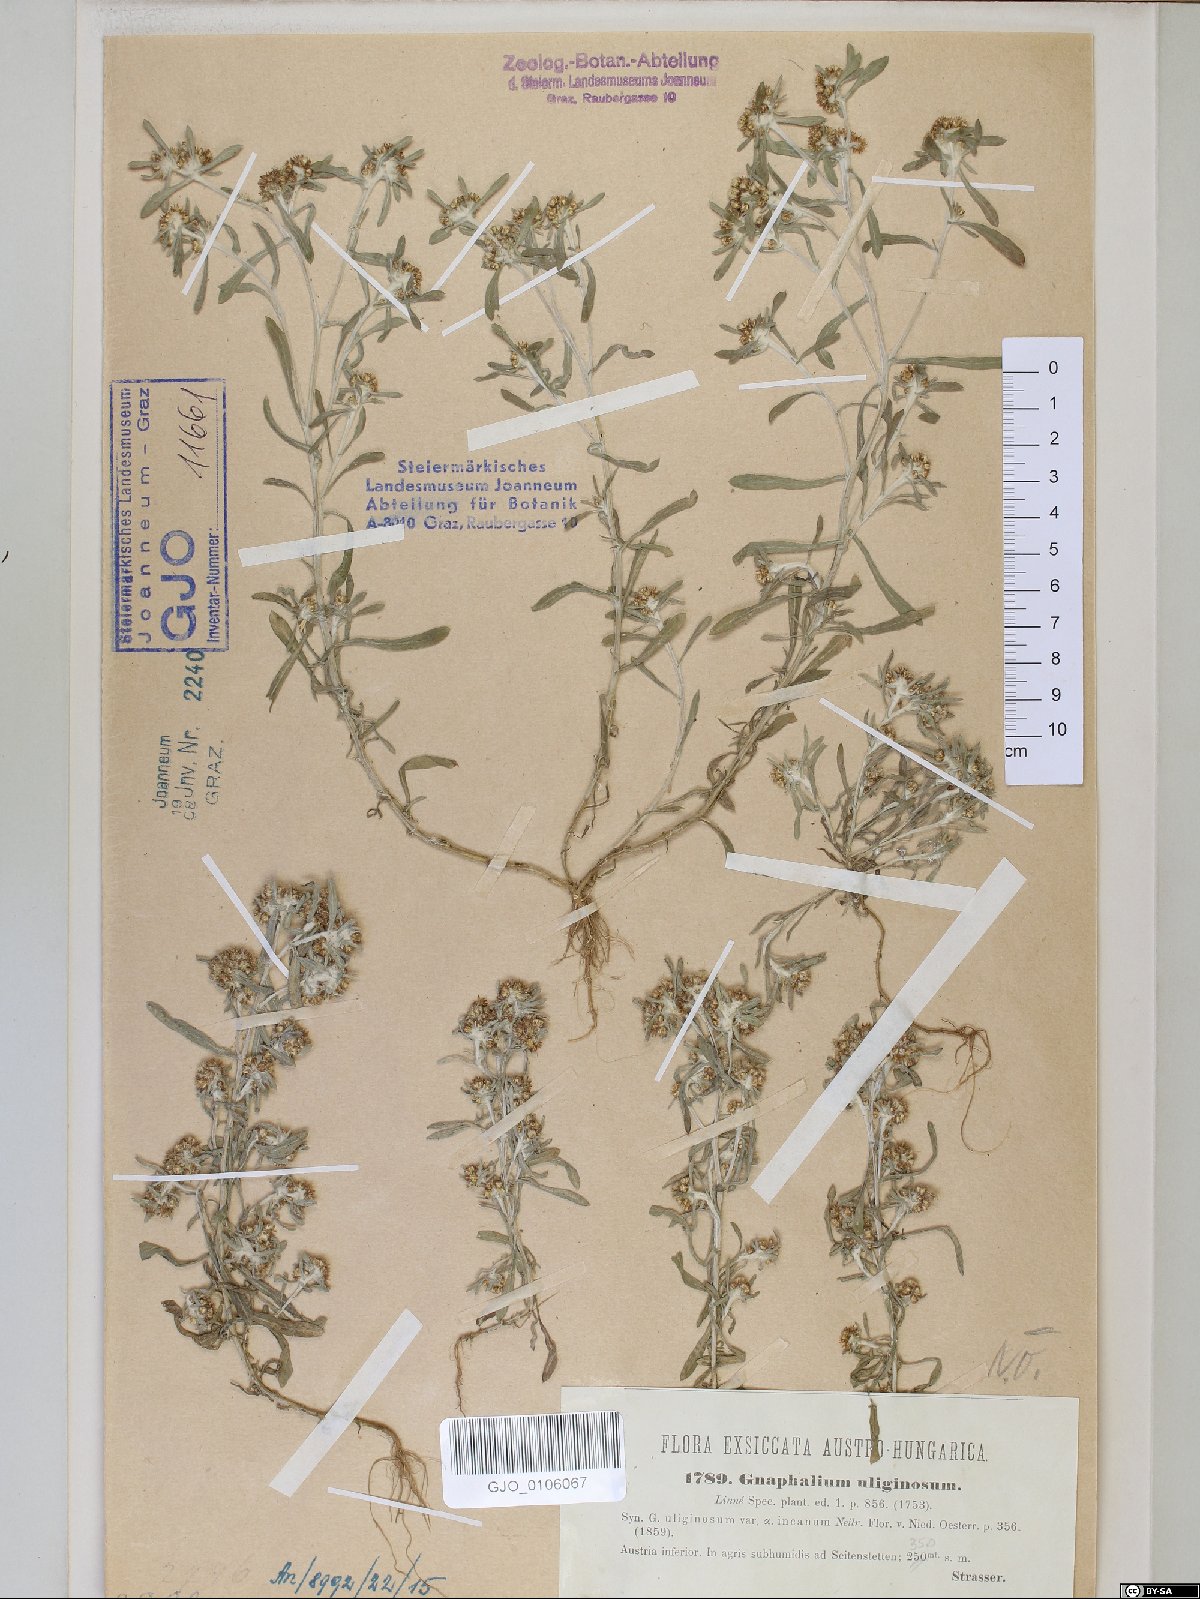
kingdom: Plantae
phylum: Tracheophyta
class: Magnoliopsida
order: Asterales
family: Asteraceae
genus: Gnaphalium
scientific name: Gnaphalium uliginosum
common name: Marsh cudweed
